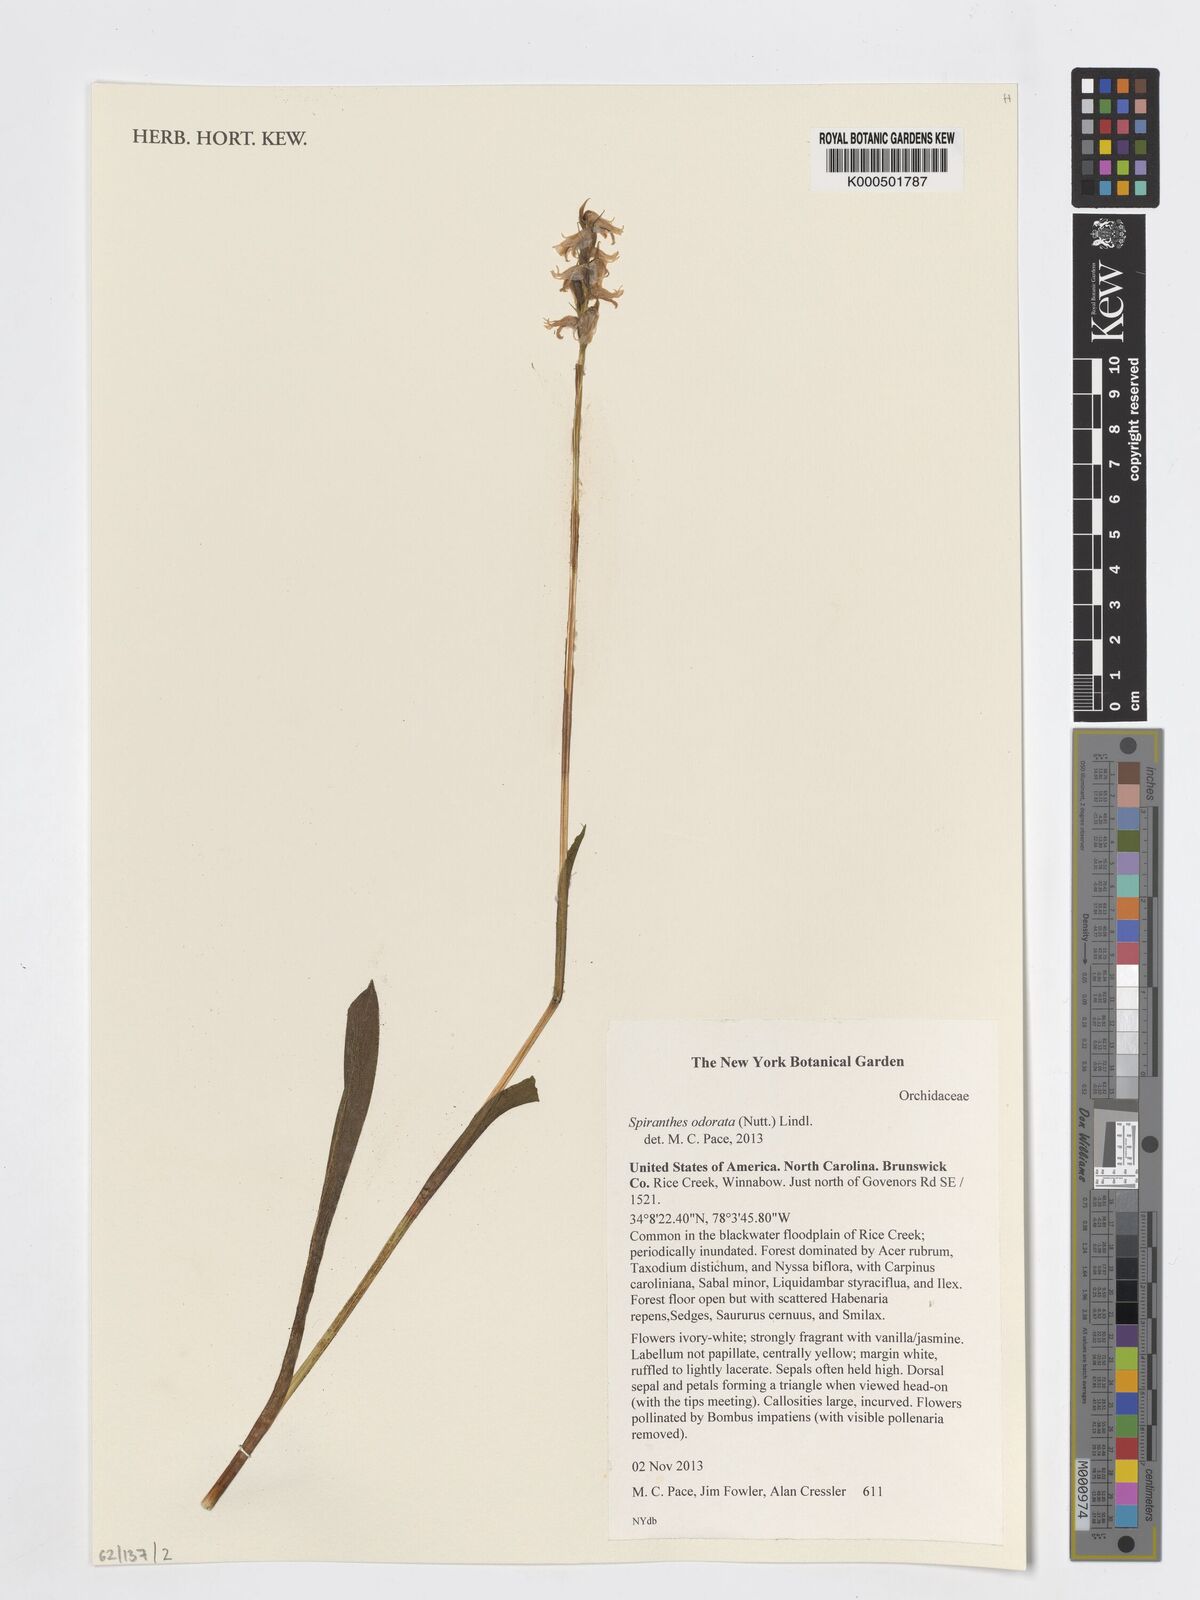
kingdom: Plantae
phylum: Tracheophyta
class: Liliopsida
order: Asparagales
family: Orchidaceae
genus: Spiranthes
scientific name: Spiranthes odorata
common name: Marsh ladies'-tresses
